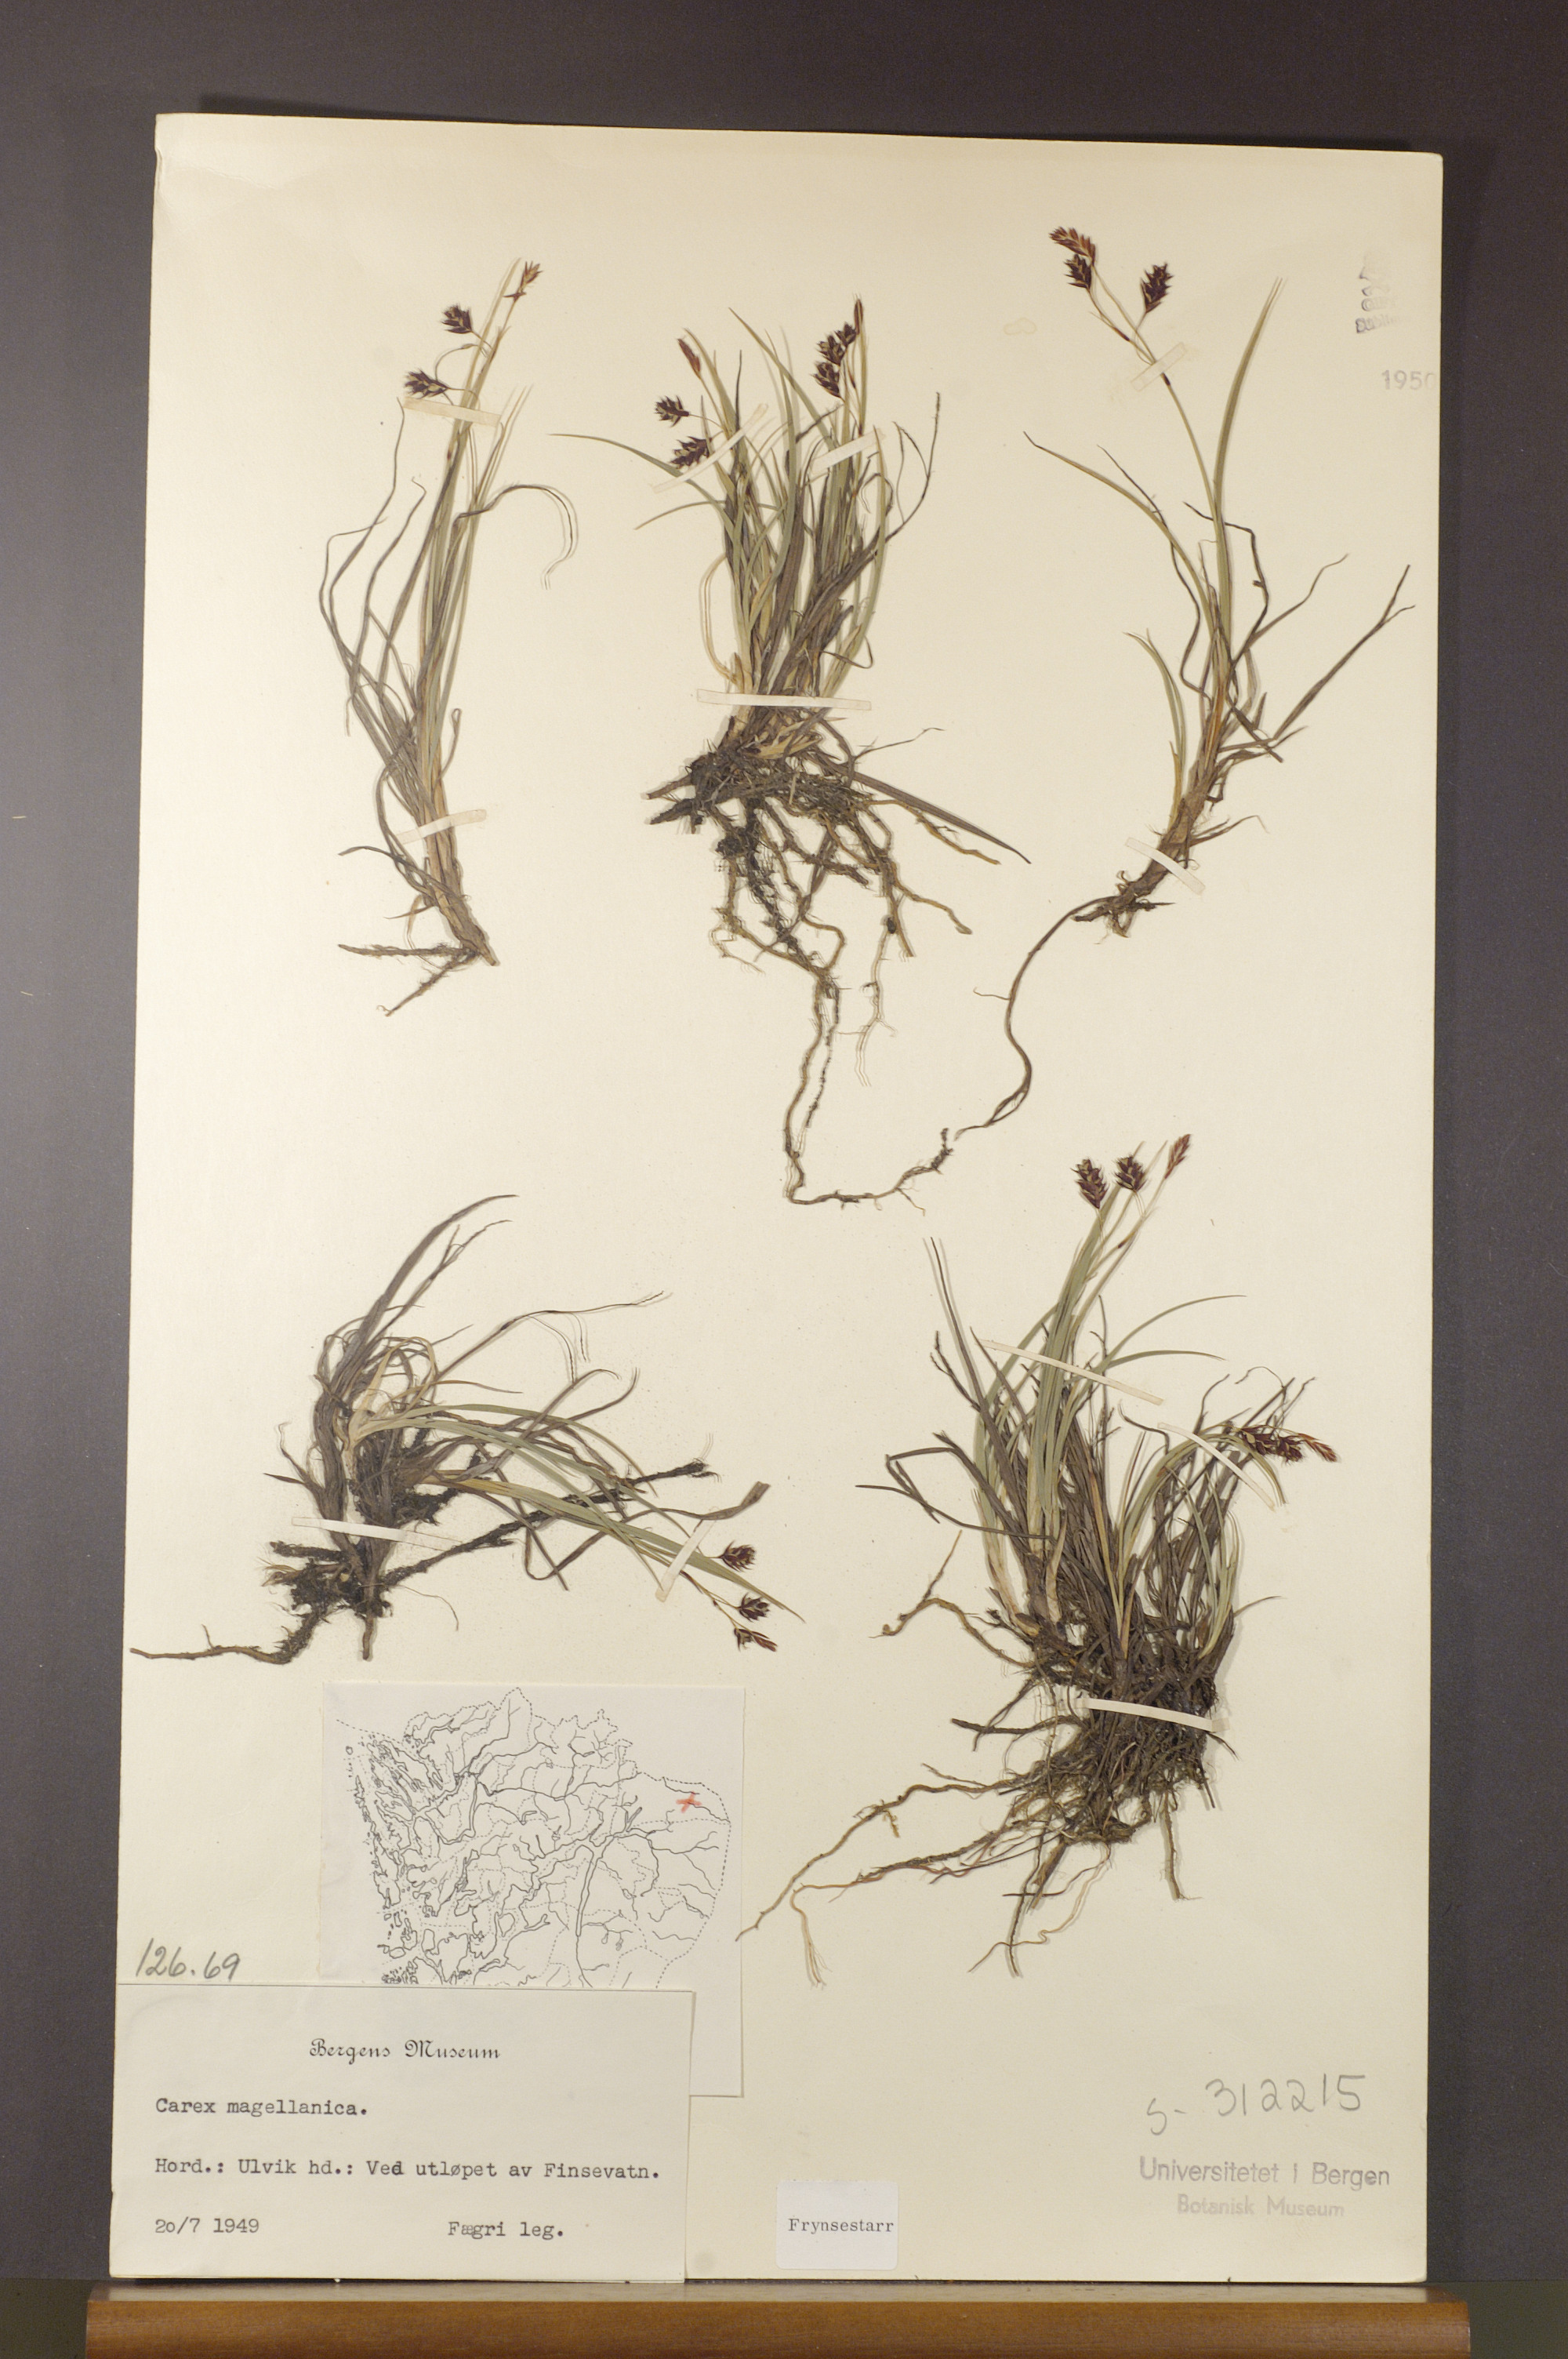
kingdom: Plantae
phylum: Tracheophyta
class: Liliopsida
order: Poales
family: Cyperaceae
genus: Carex
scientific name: Carex magellanica
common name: Bog sedge
